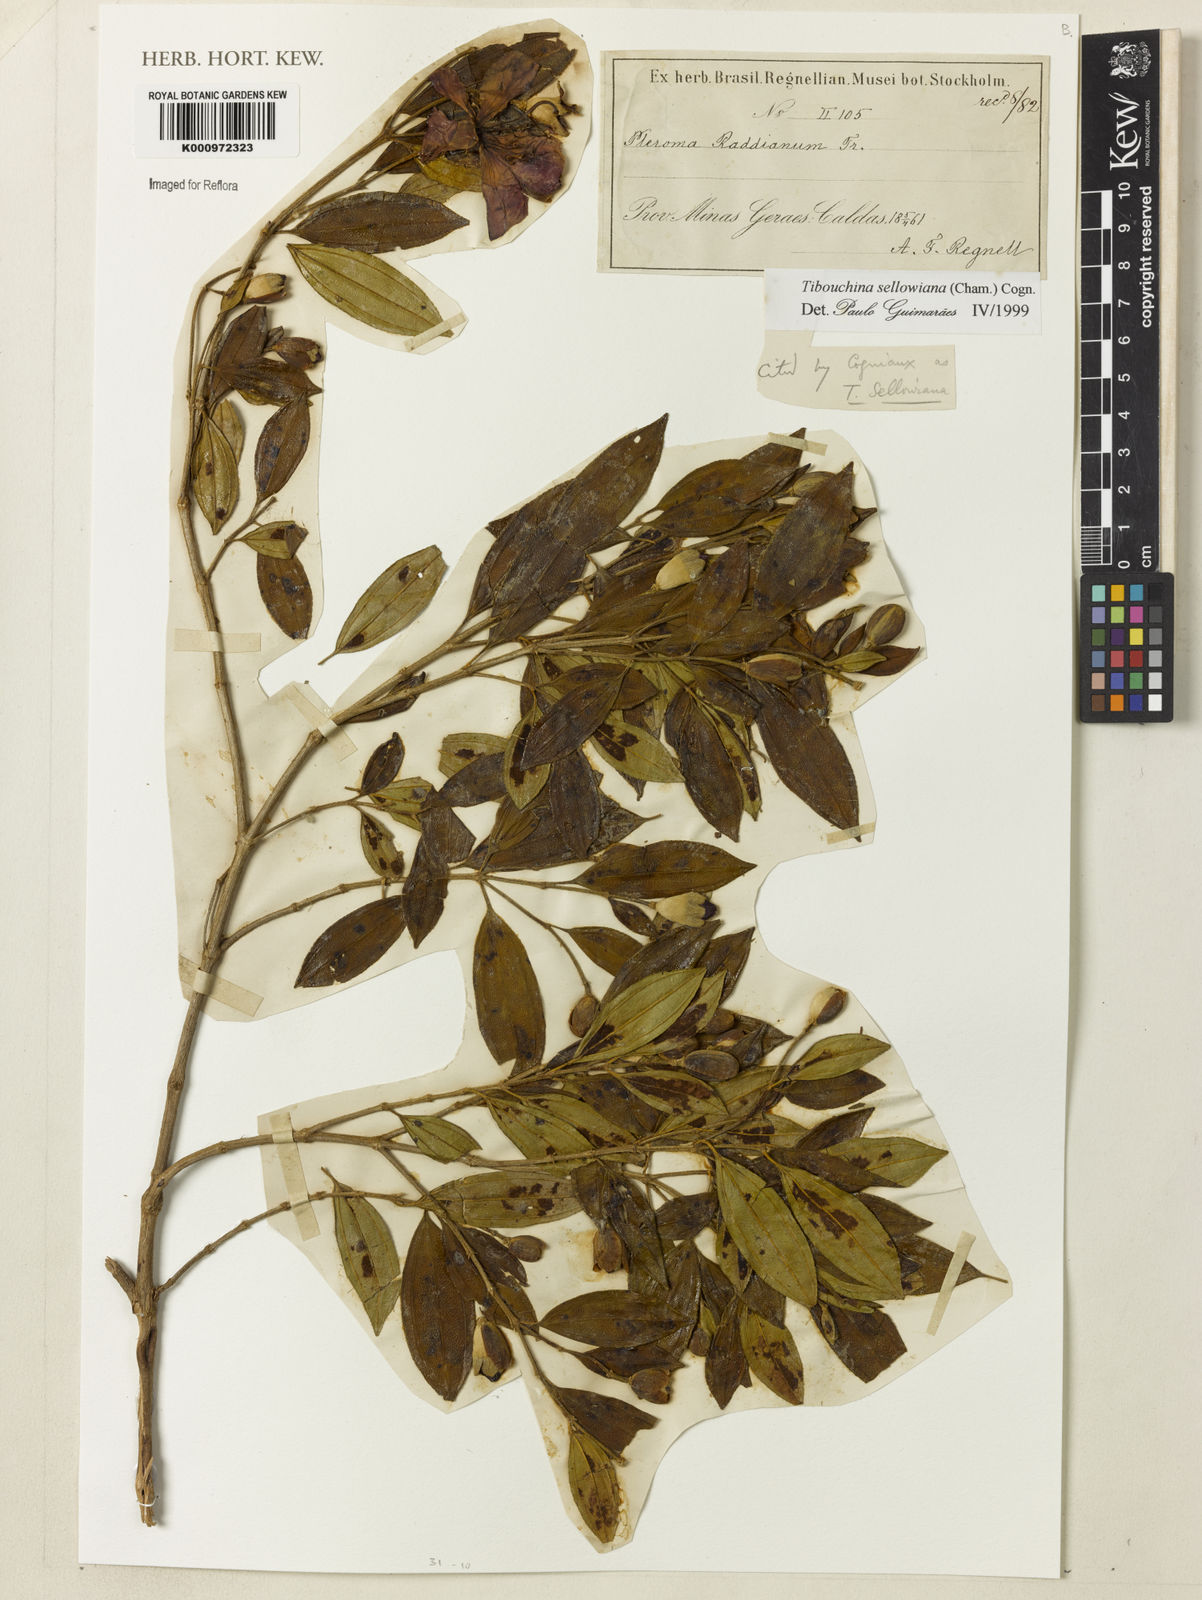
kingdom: Plantae
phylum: Tracheophyta
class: Magnoliopsida
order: Myrtales
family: Melastomataceae
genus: Pleroma
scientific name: Pleroma sellowianum
